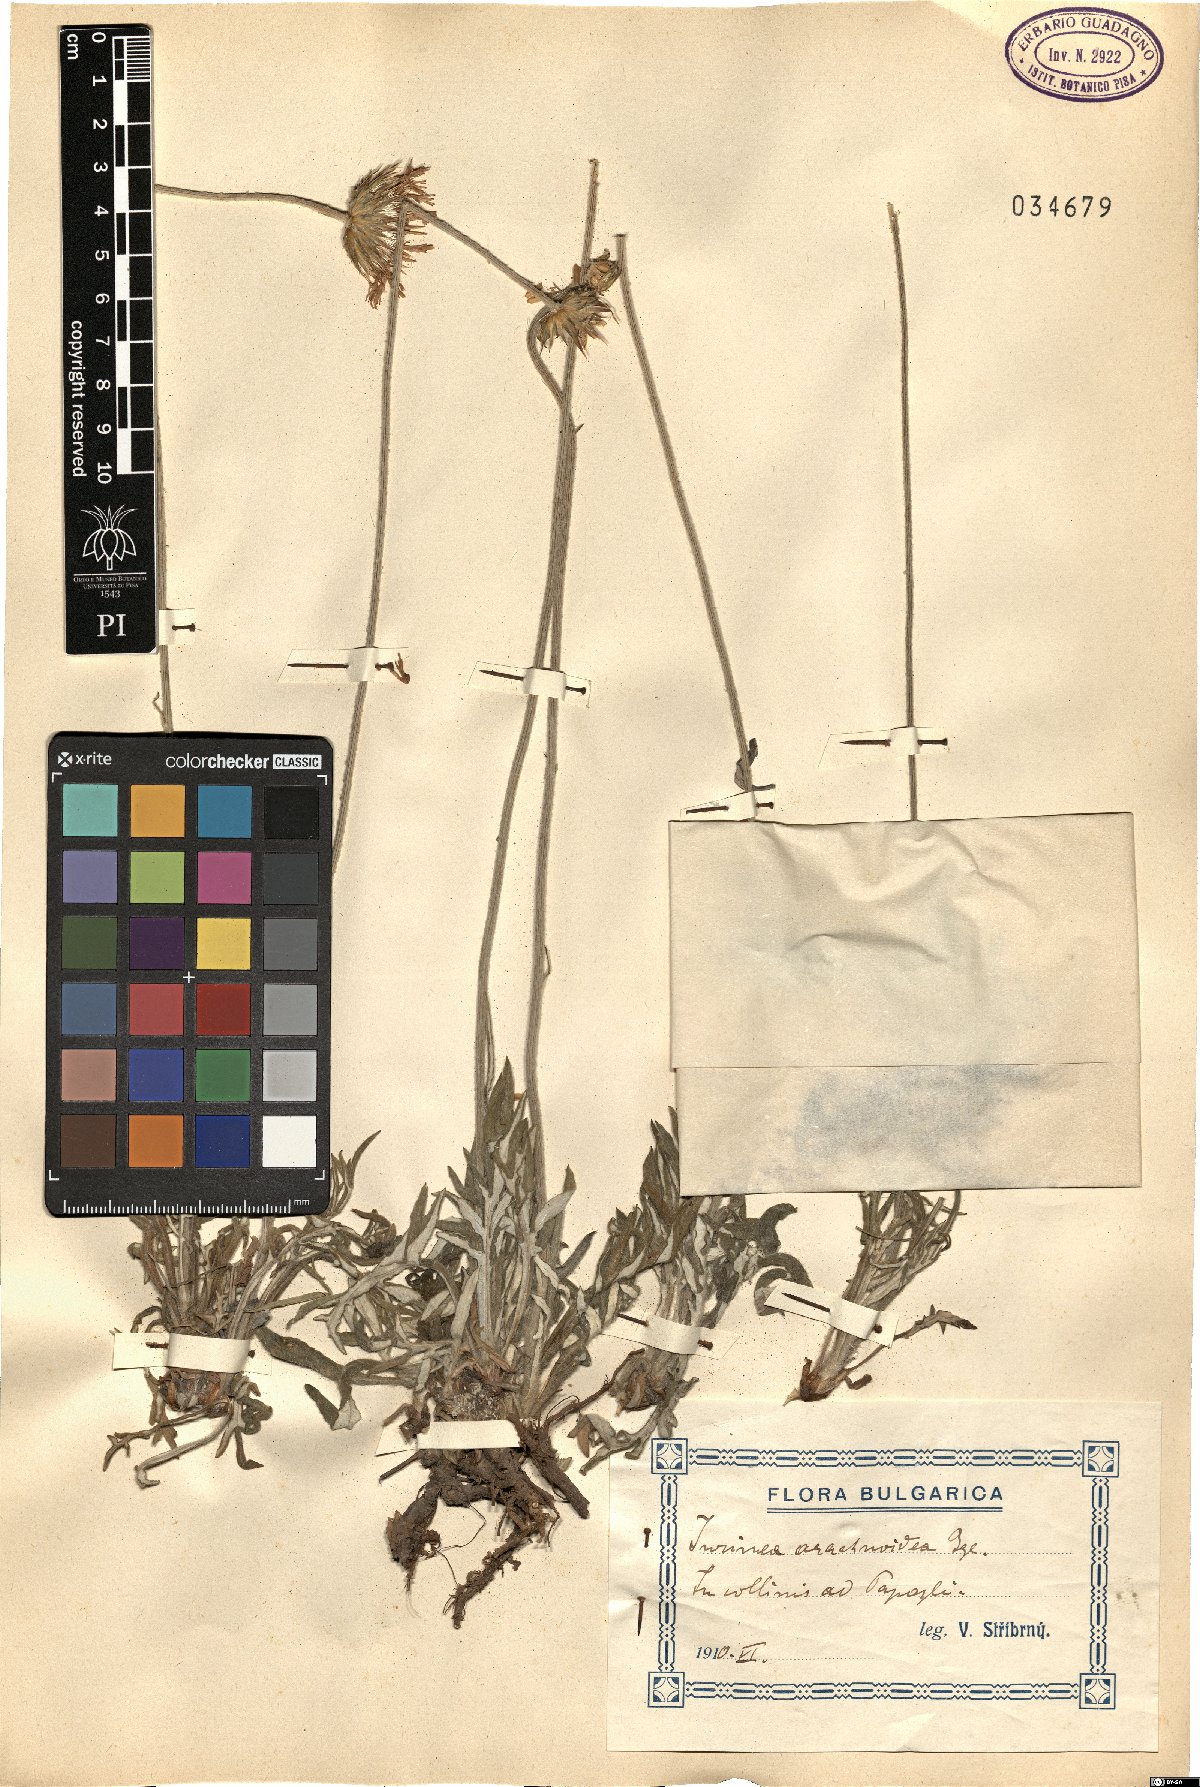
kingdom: Plantae
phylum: Tracheophyta
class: Magnoliopsida
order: Asterales
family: Asteraceae
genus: Jurinea
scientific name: Jurinea arachnoidea
